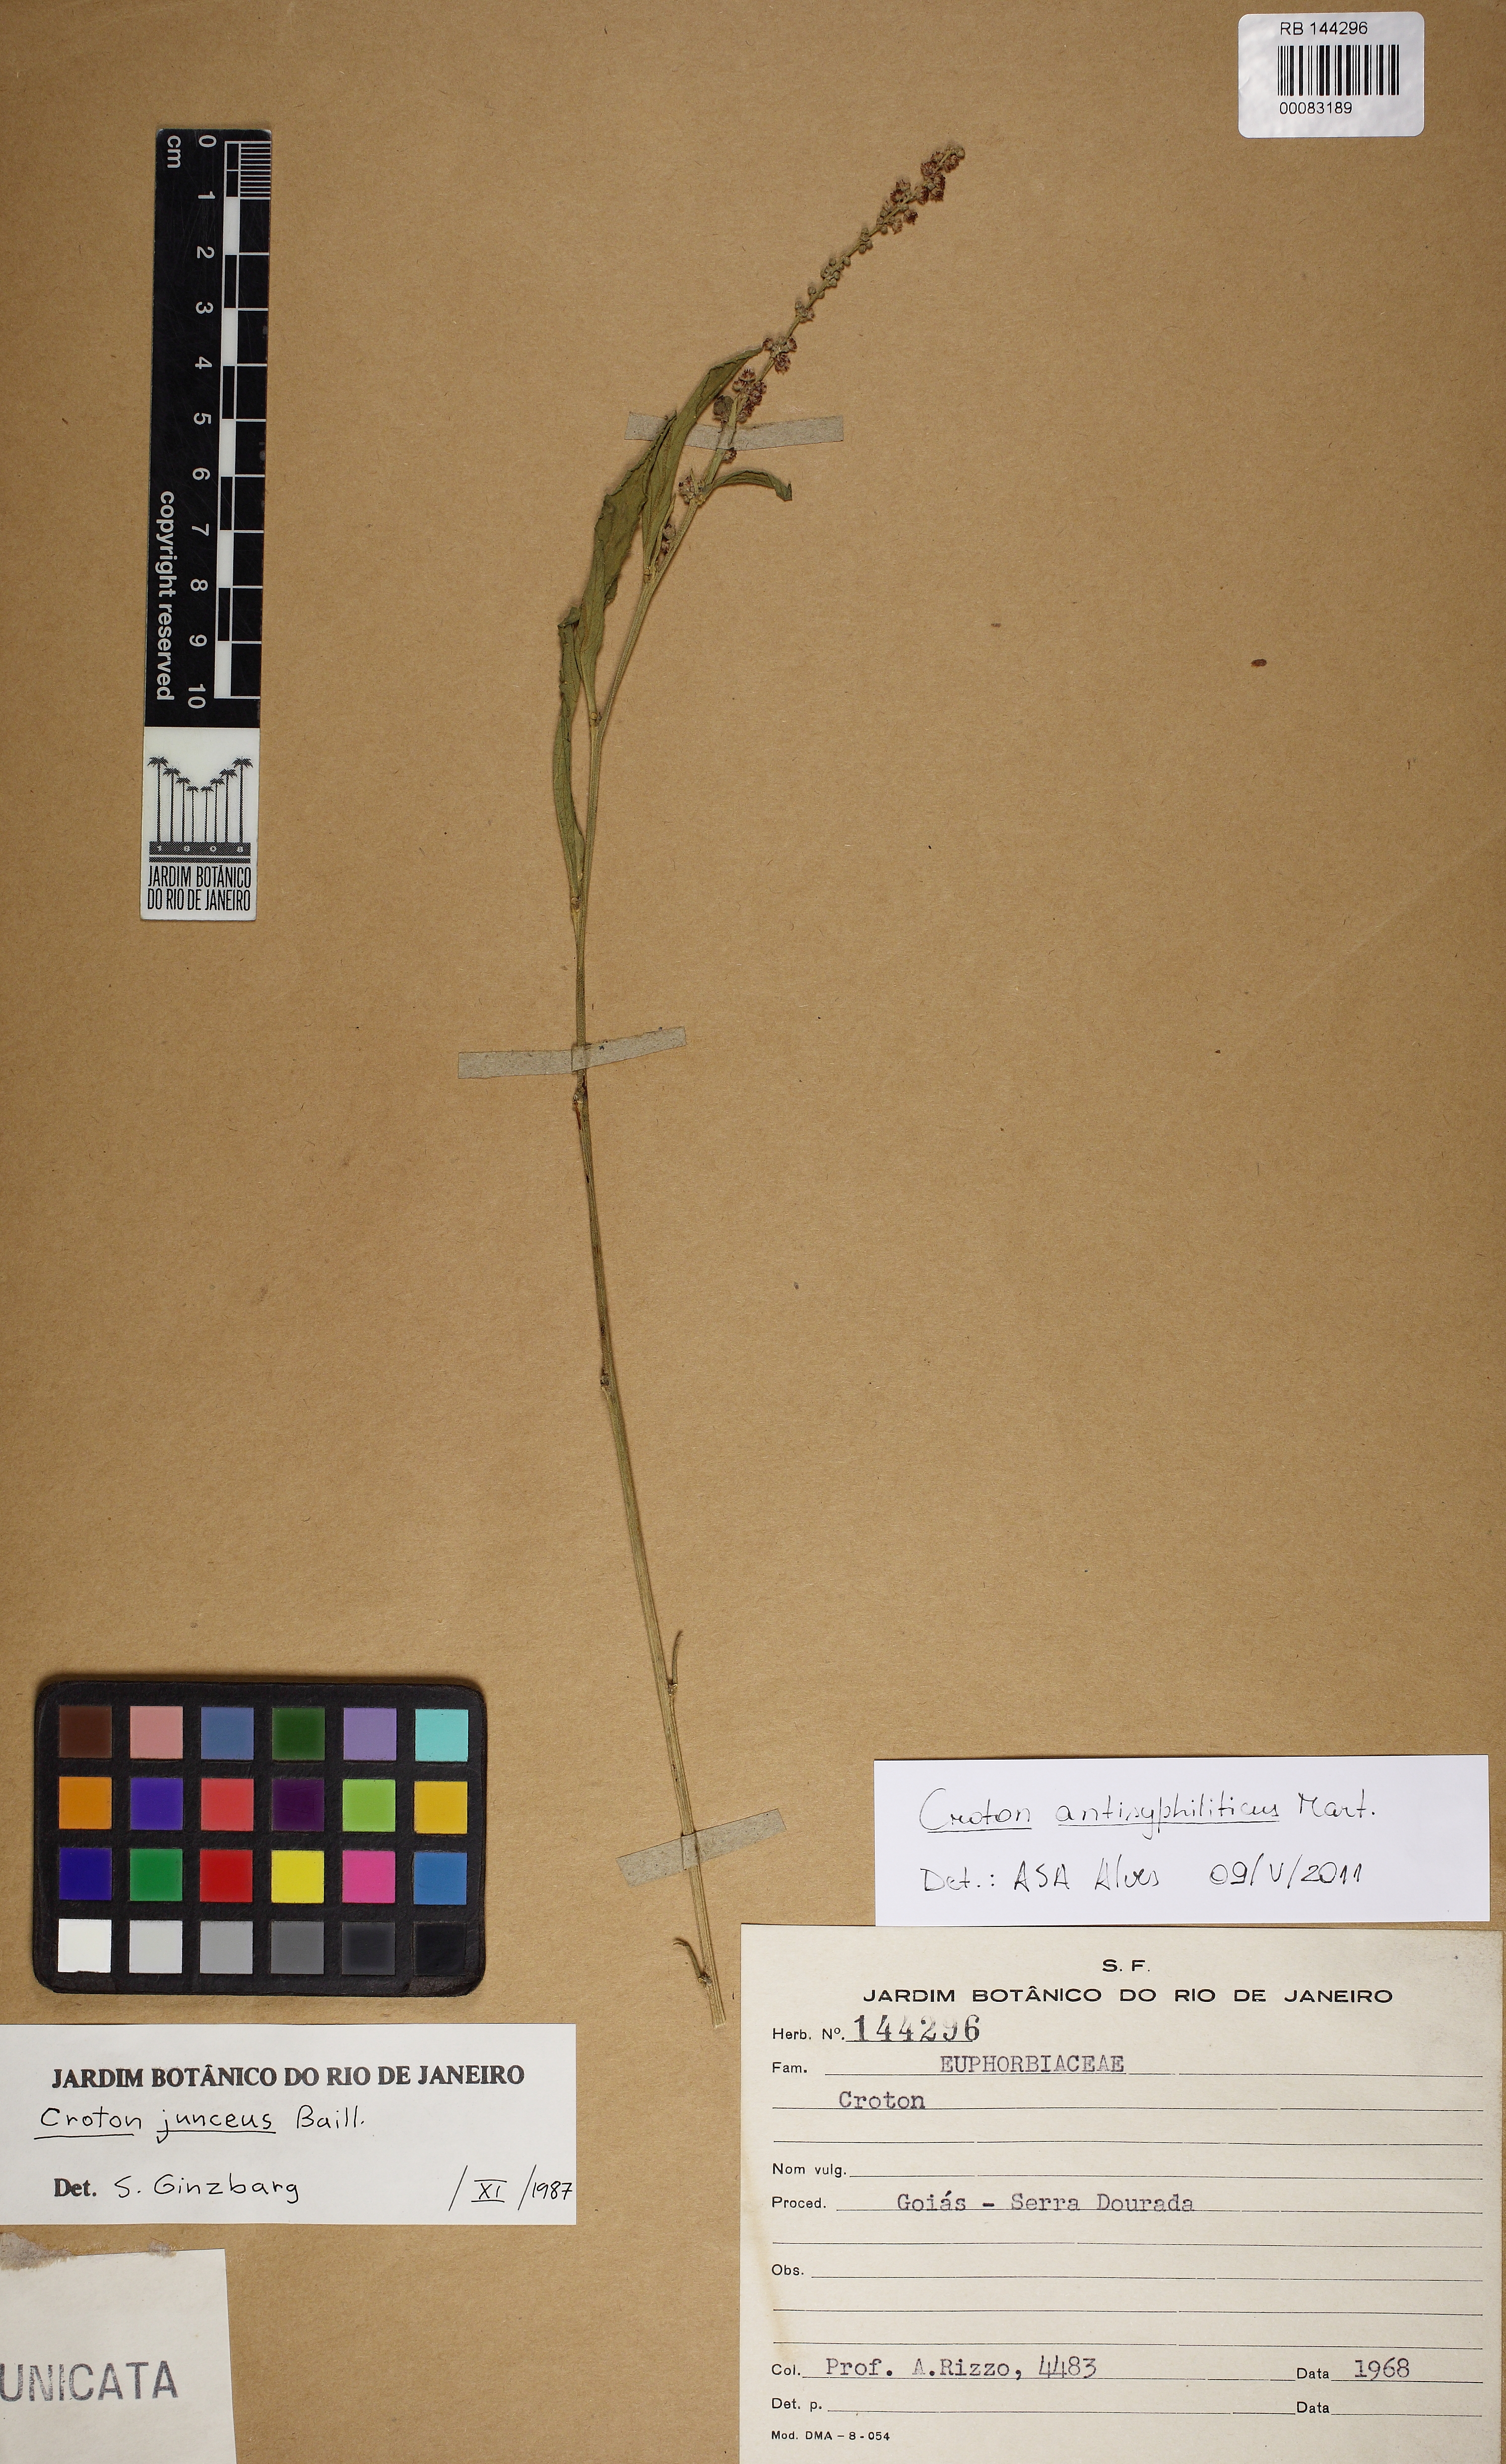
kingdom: Plantae
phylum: Tracheophyta
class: Magnoliopsida
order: Malpighiales
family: Euphorbiaceae
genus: Croton
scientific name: Croton gracilescens
